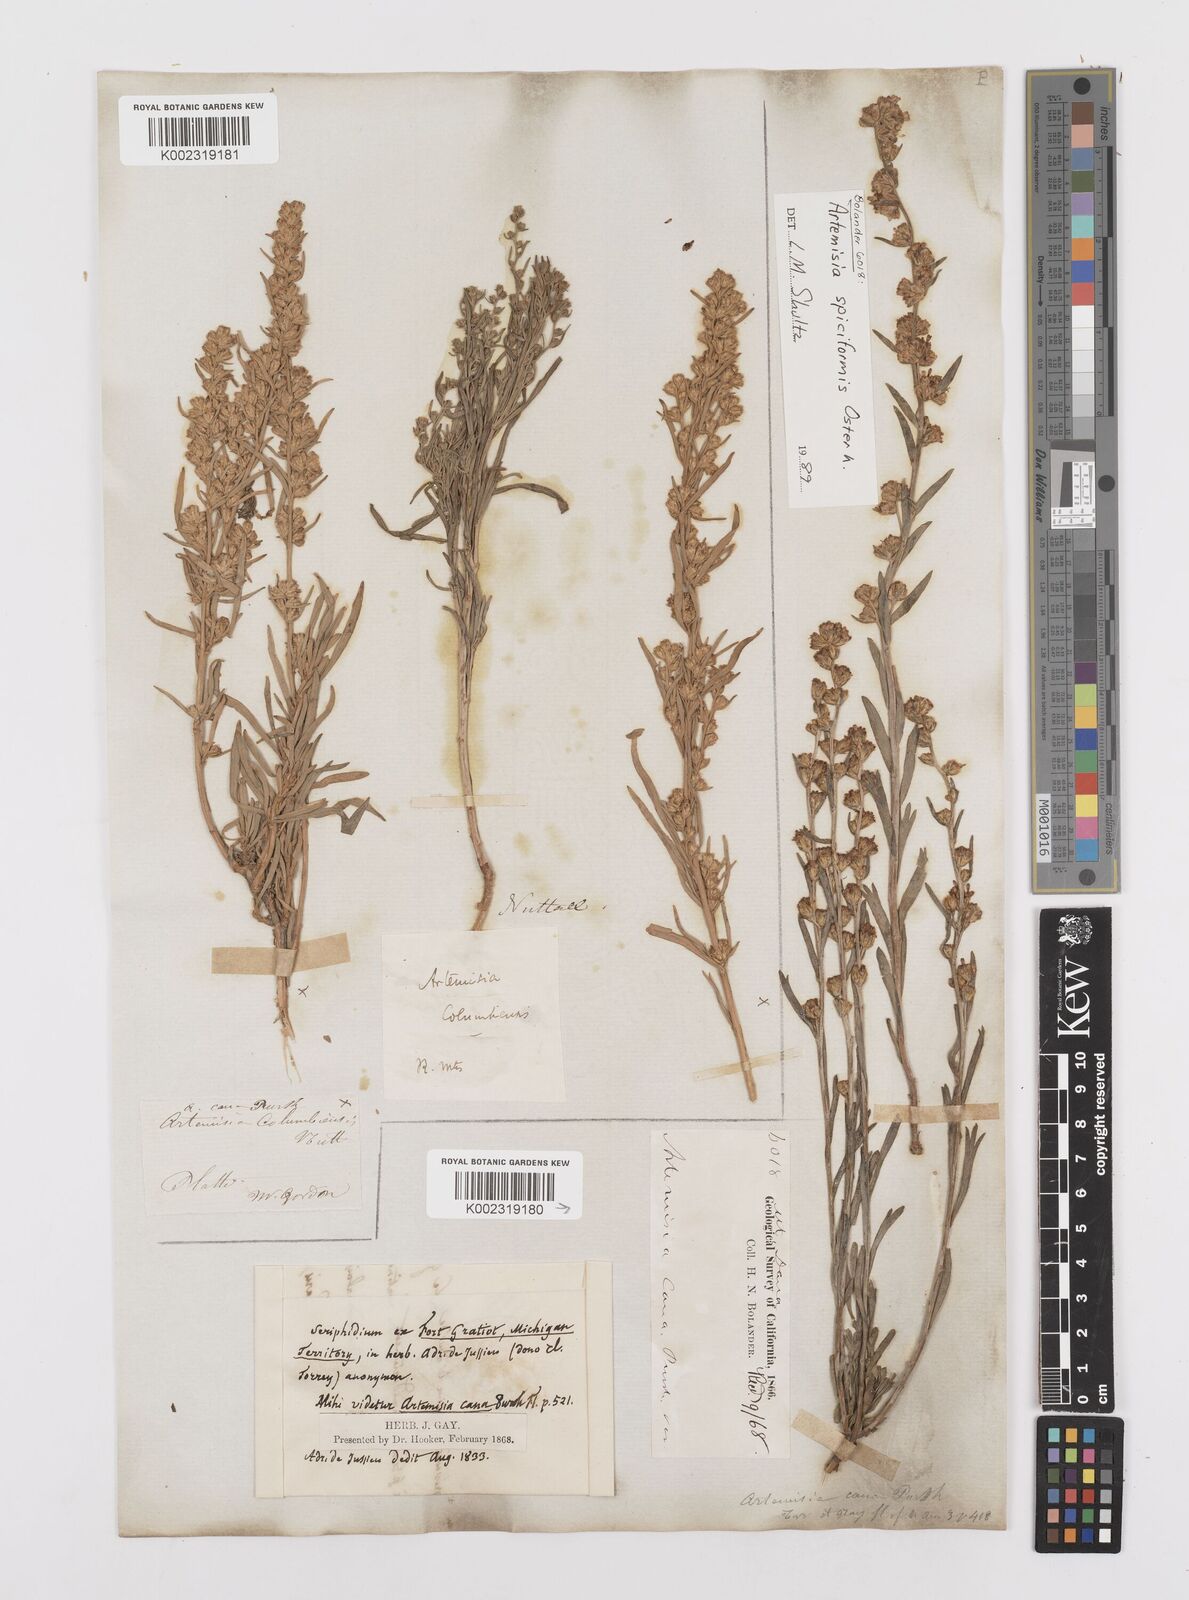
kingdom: Plantae
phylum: Tracheophyta
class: Magnoliopsida
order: Asterales
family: Asteraceae
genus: Artemisia
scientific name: Artemisia spiciformis
